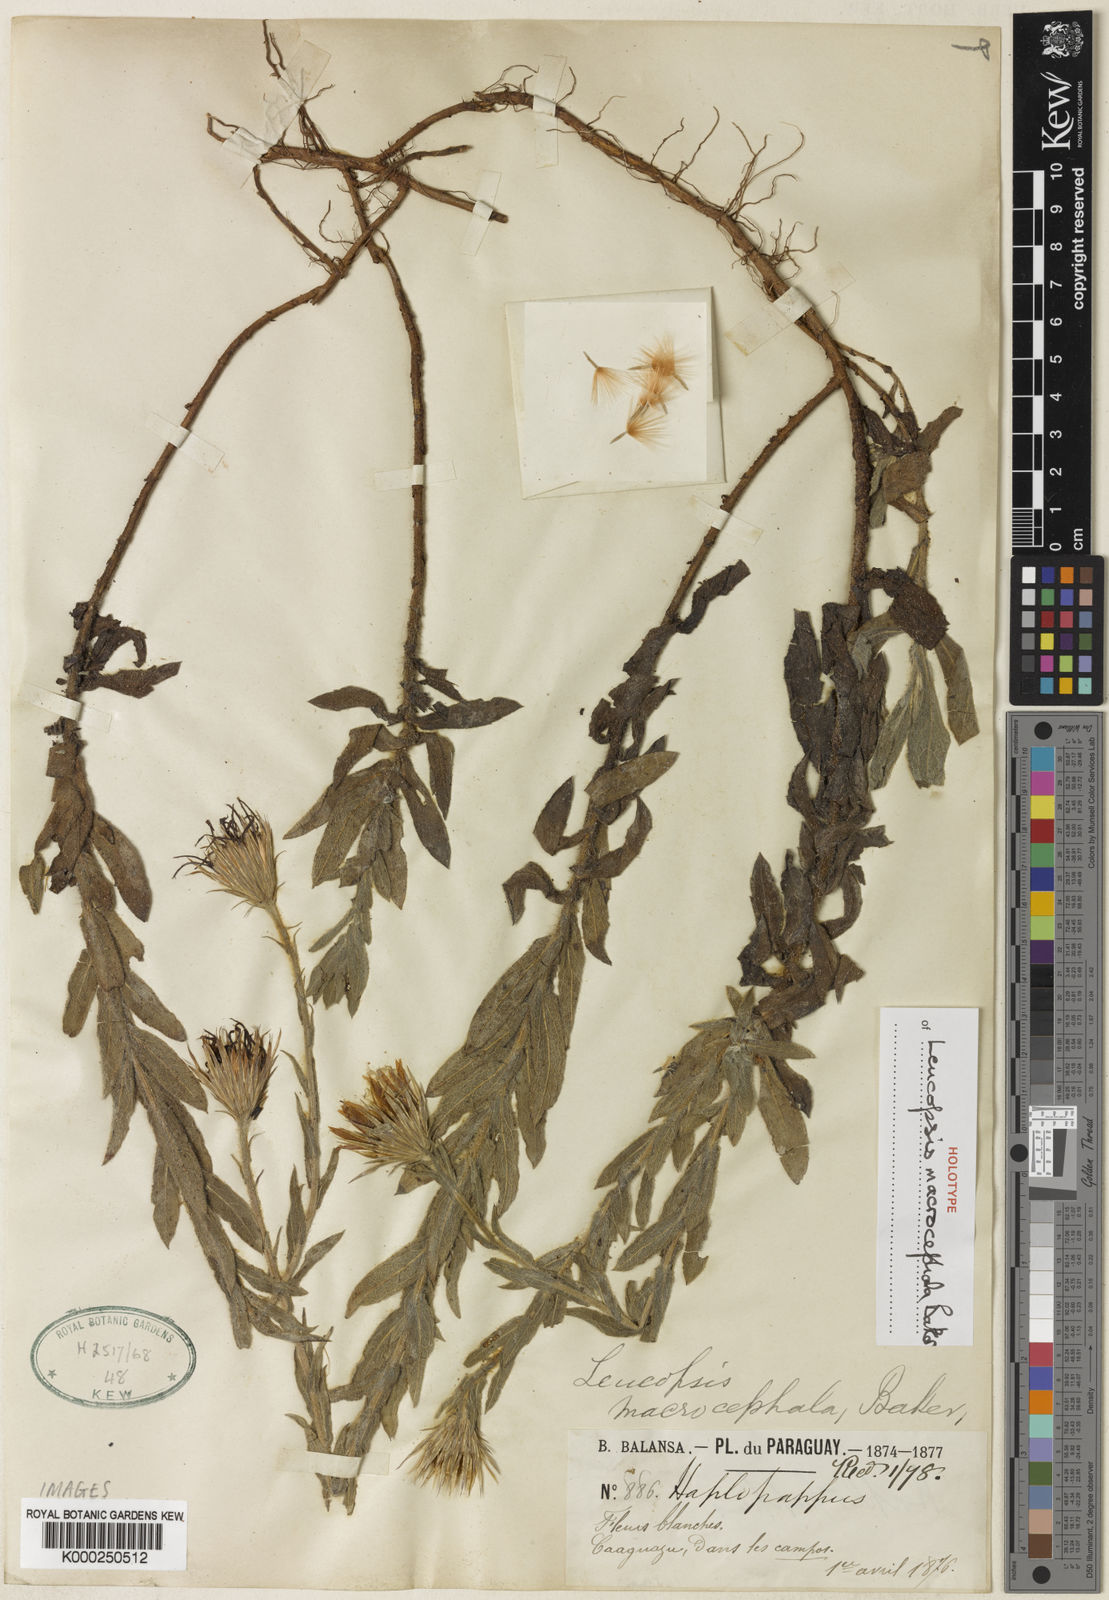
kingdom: Plantae
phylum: Tracheophyta
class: Magnoliopsida
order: Asterales
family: Asteraceae
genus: Noticastrum
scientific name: Noticastrum macrocephalum
